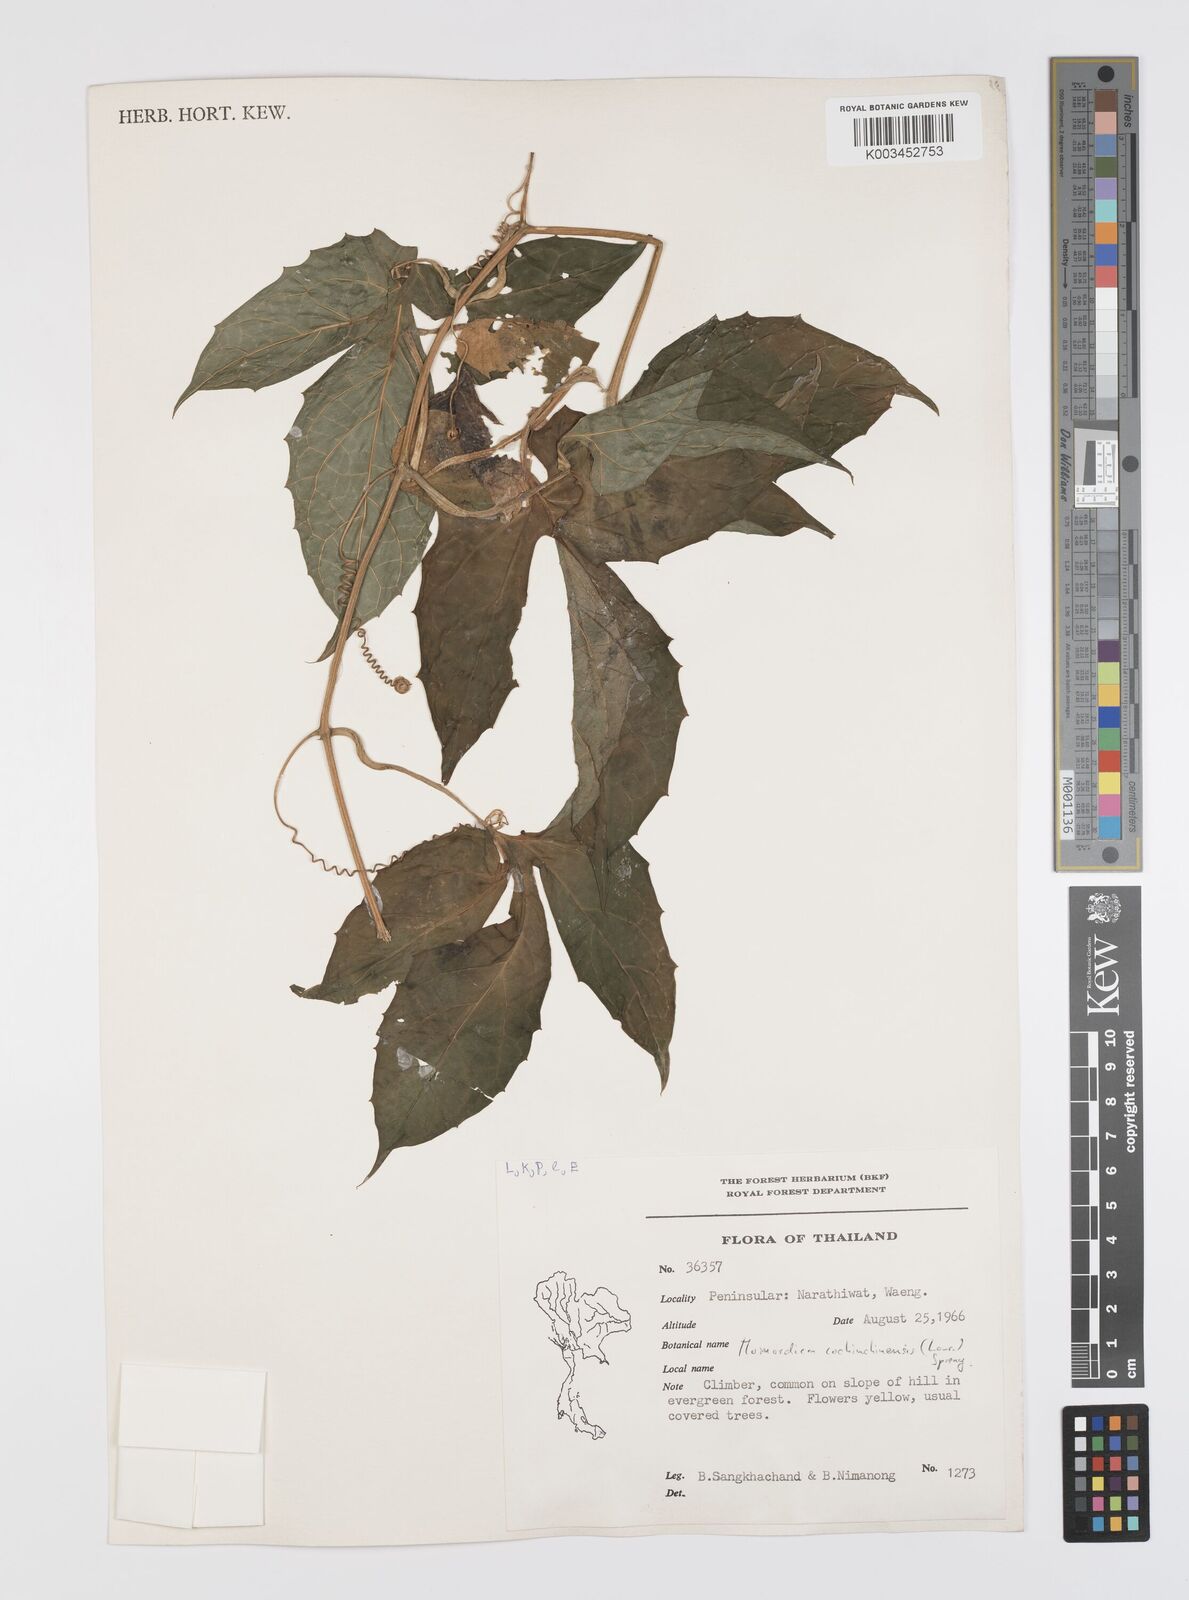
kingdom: Plantae
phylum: Tracheophyta
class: Magnoliopsida
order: Cucurbitales
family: Cucurbitaceae
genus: Momordica
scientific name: Momordica cochinchinensis
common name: Chinese bitter-cucumber
